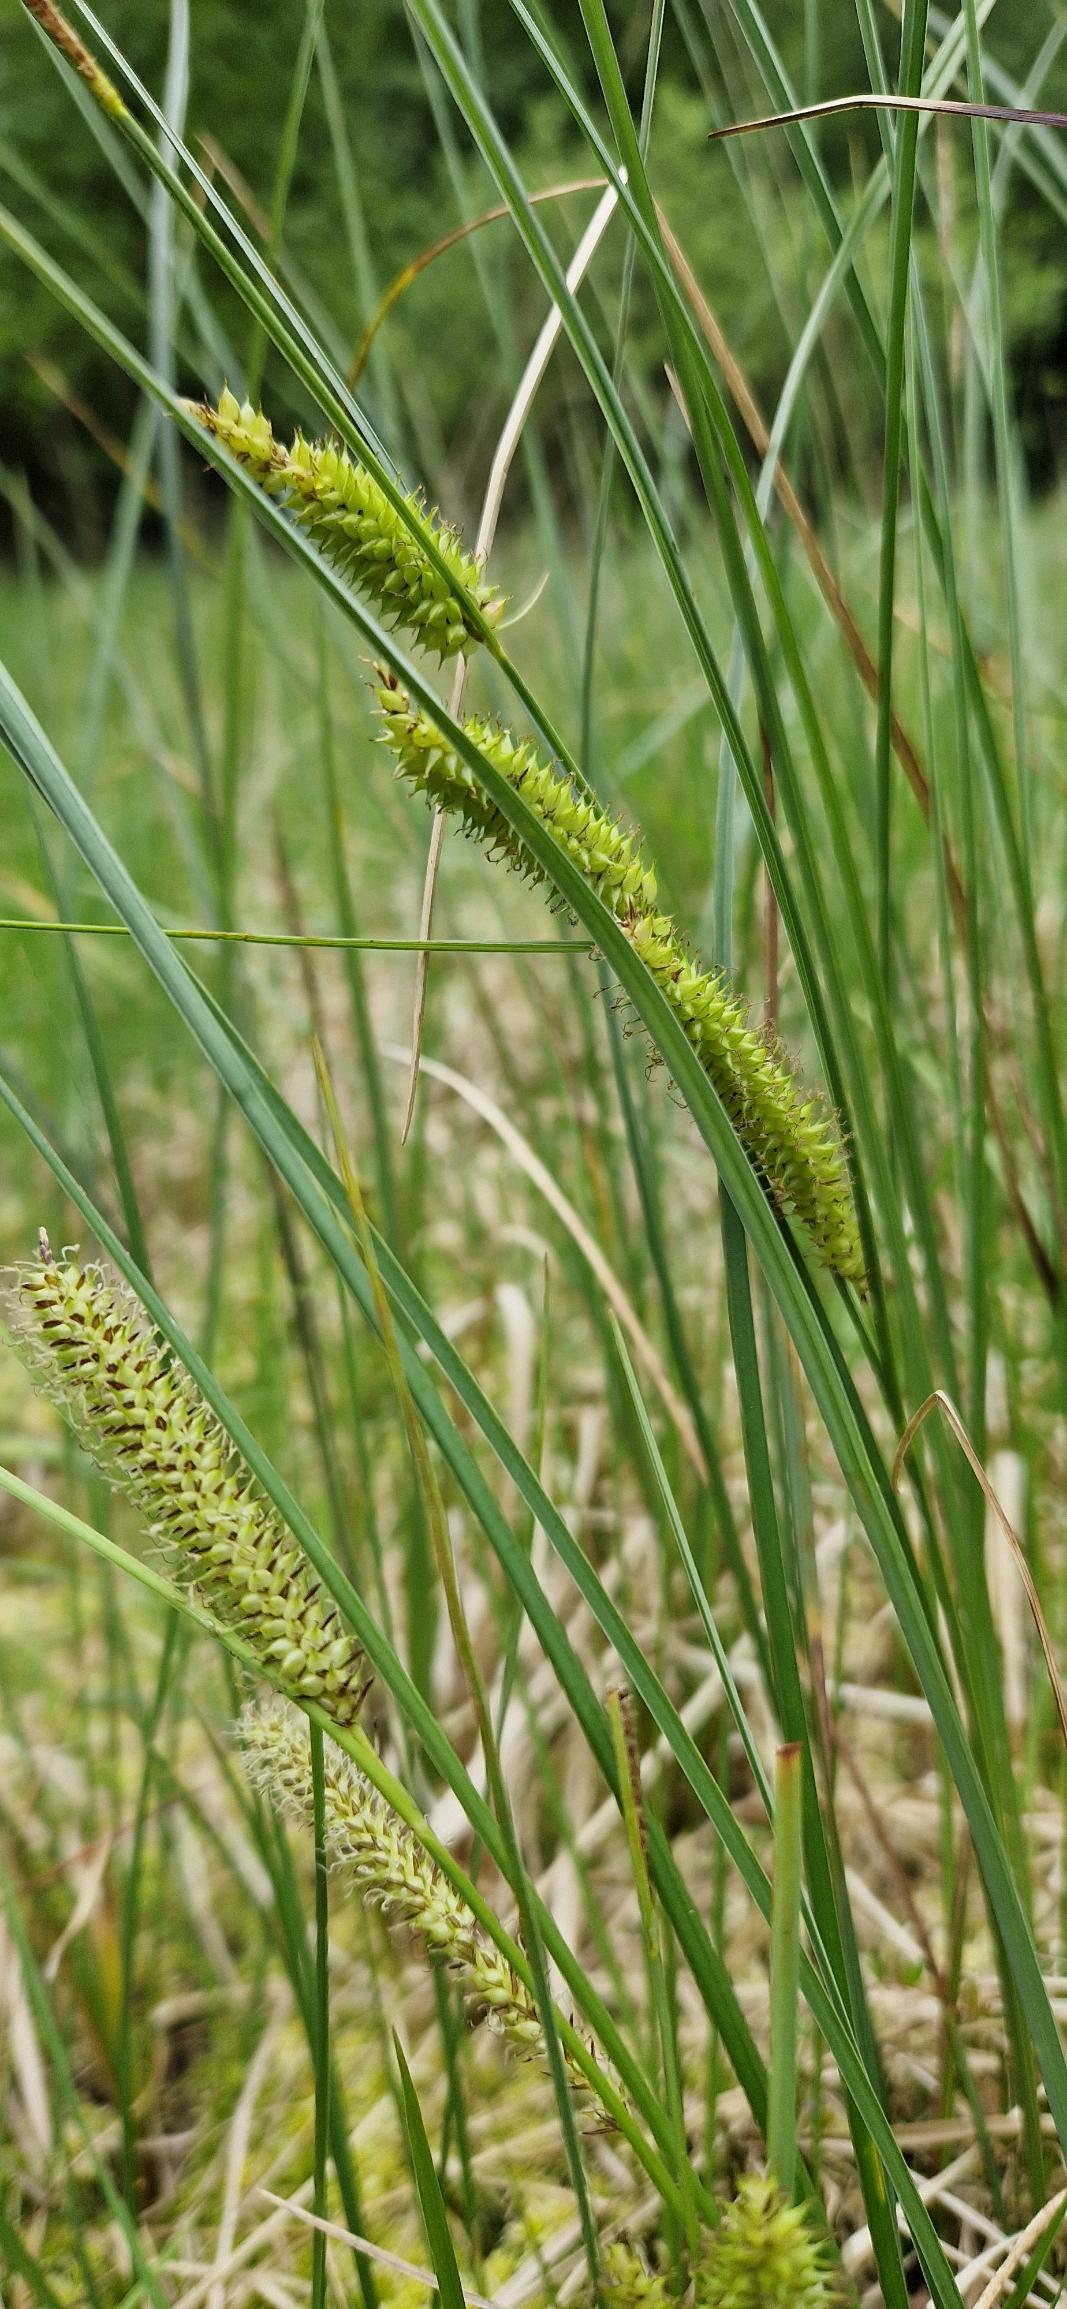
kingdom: Plantae
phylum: Tracheophyta
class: Liliopsida
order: Poales
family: Cyperaceae
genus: Carex
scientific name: Carex rostrata
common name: Næb-star
